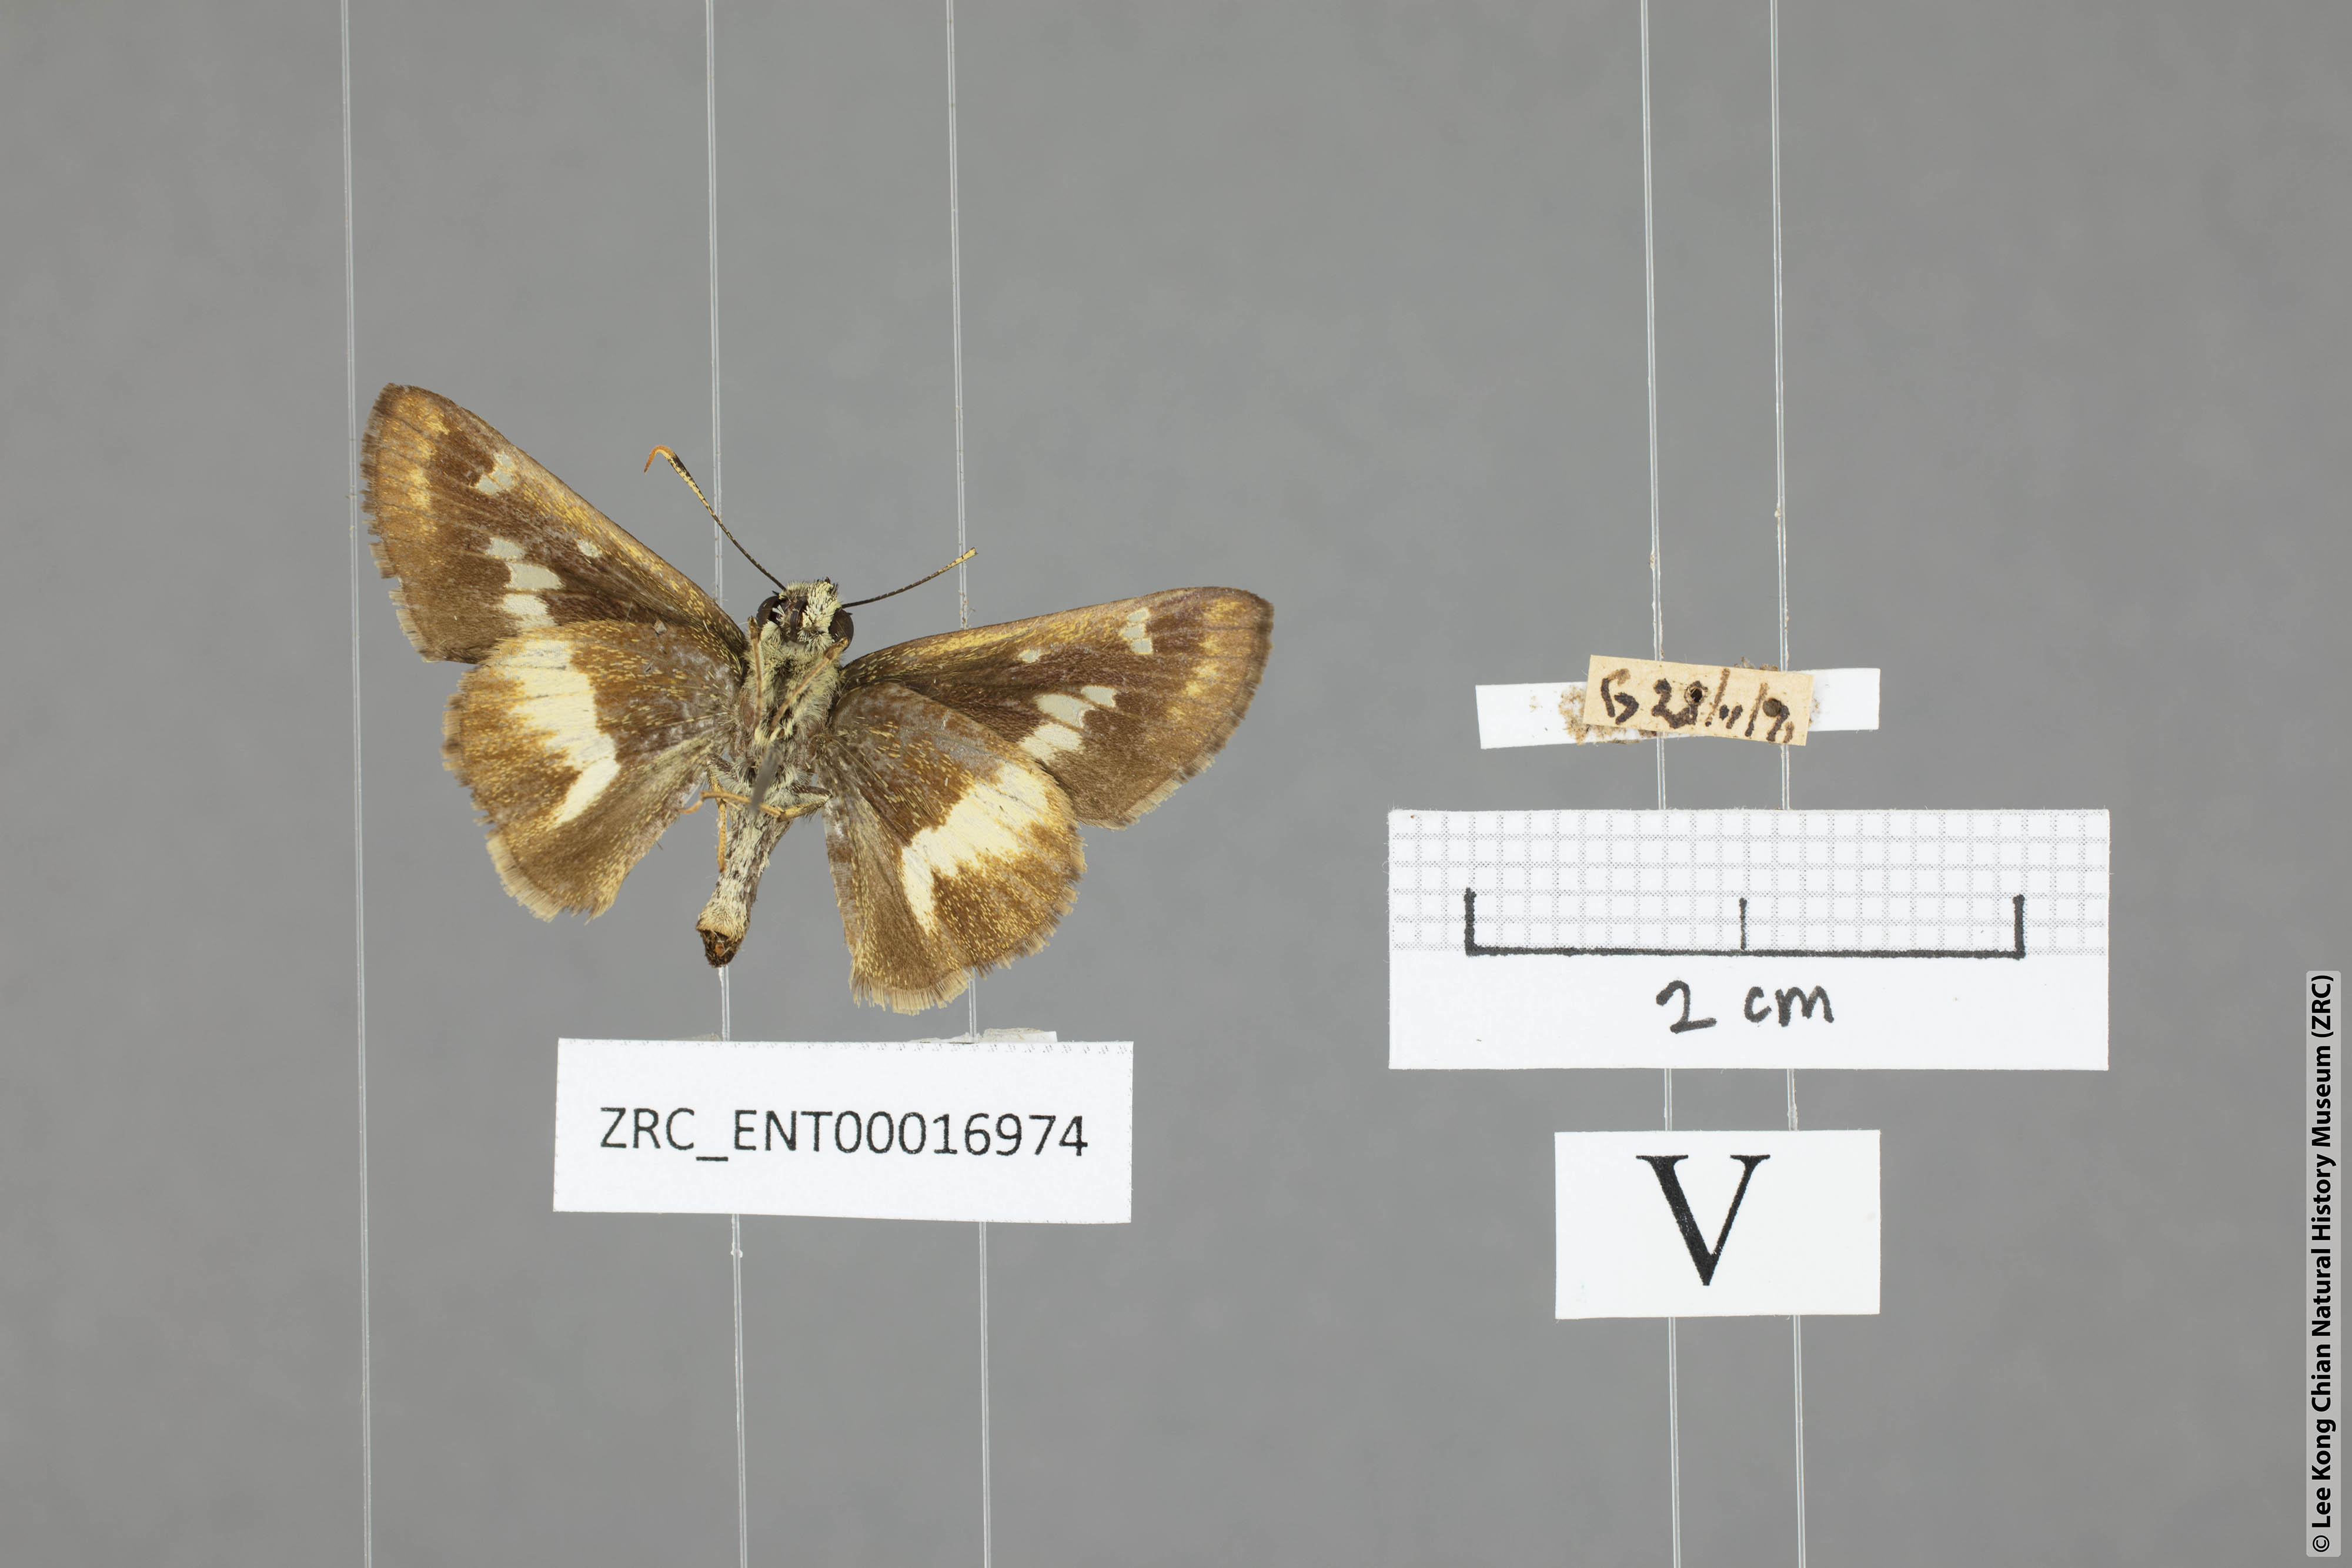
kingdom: Animalia
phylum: Arthropoda
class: Insecta
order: Lepidoptera
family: Hesperiidae
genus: Halpe
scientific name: Halpe elana
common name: Narrow-banded ace
